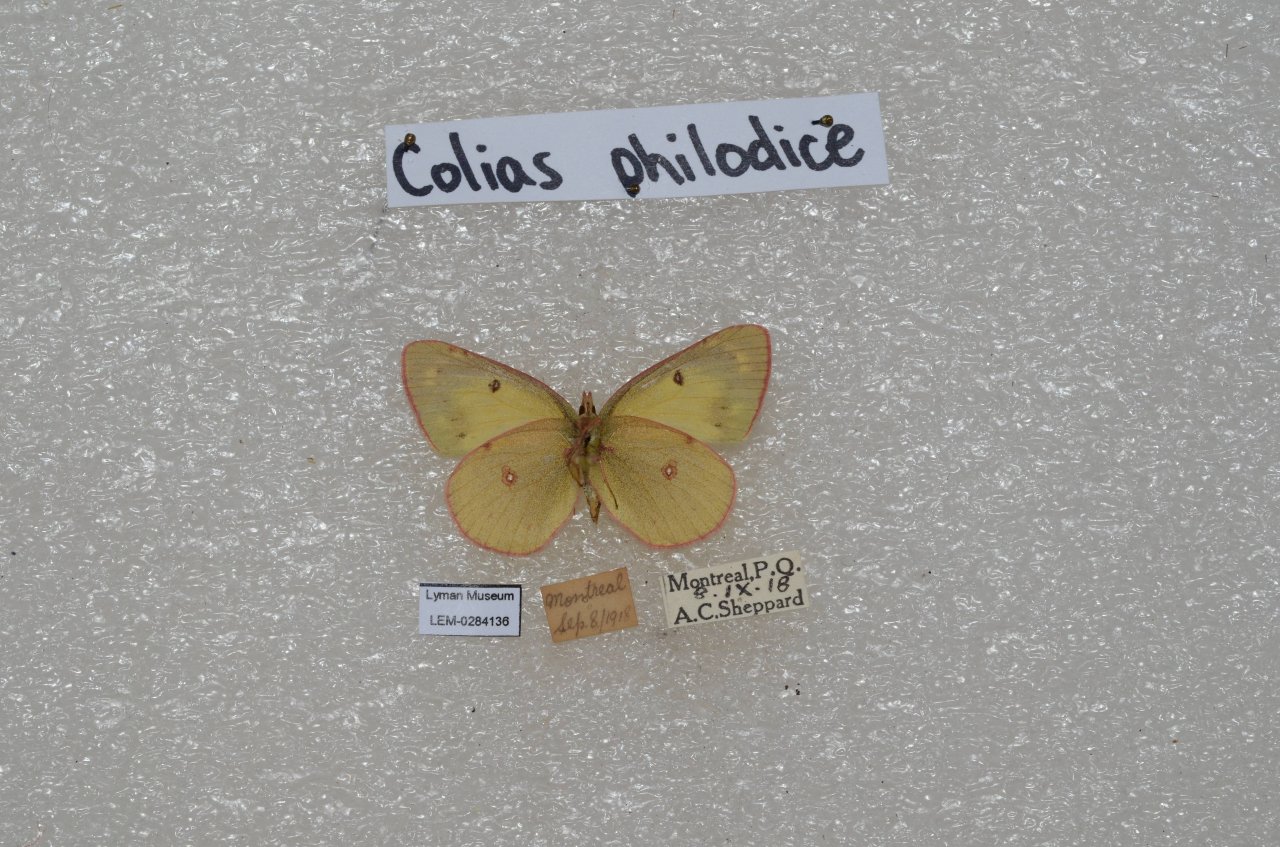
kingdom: Animalia
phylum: Arthropoda
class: Insecta
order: Lepidoptera
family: Pieridae
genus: Colias
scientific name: Colias philodice
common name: Clouded Sulphur
